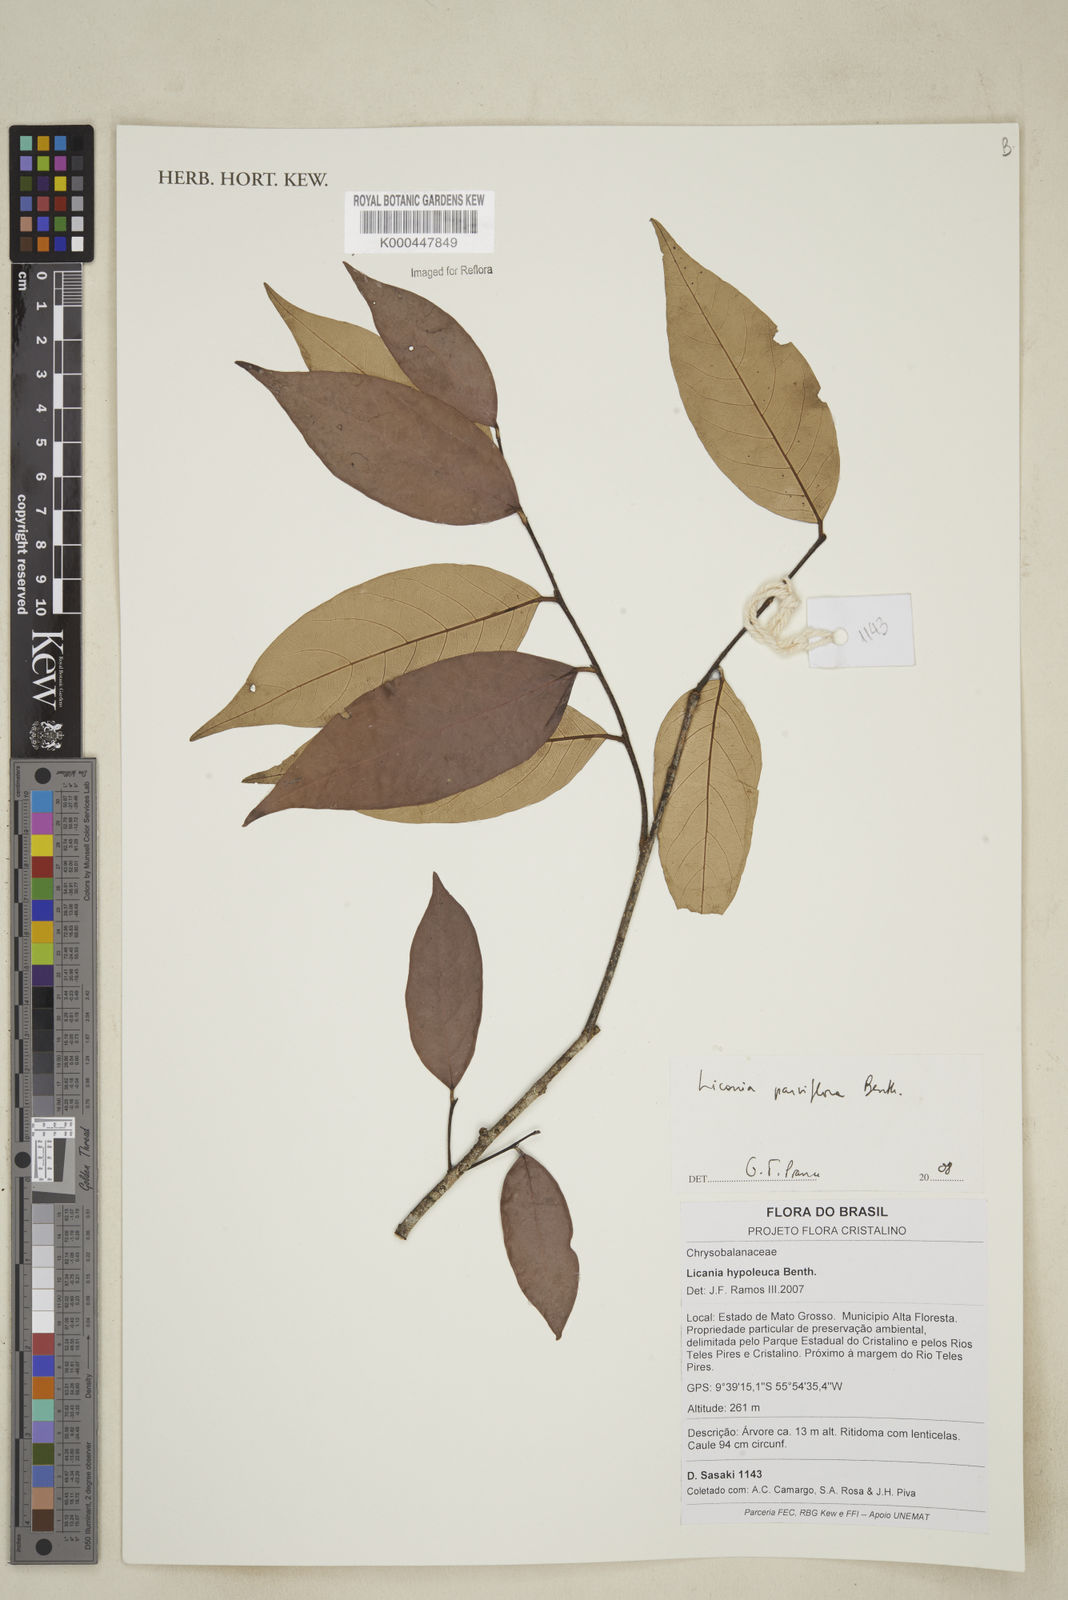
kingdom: Plantae
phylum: Tracheophyta
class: Magnoliopsida
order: Malpighiales
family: Chrysobalanaceae
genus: Leptobalanus
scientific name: Leptobalanus parviflorus
